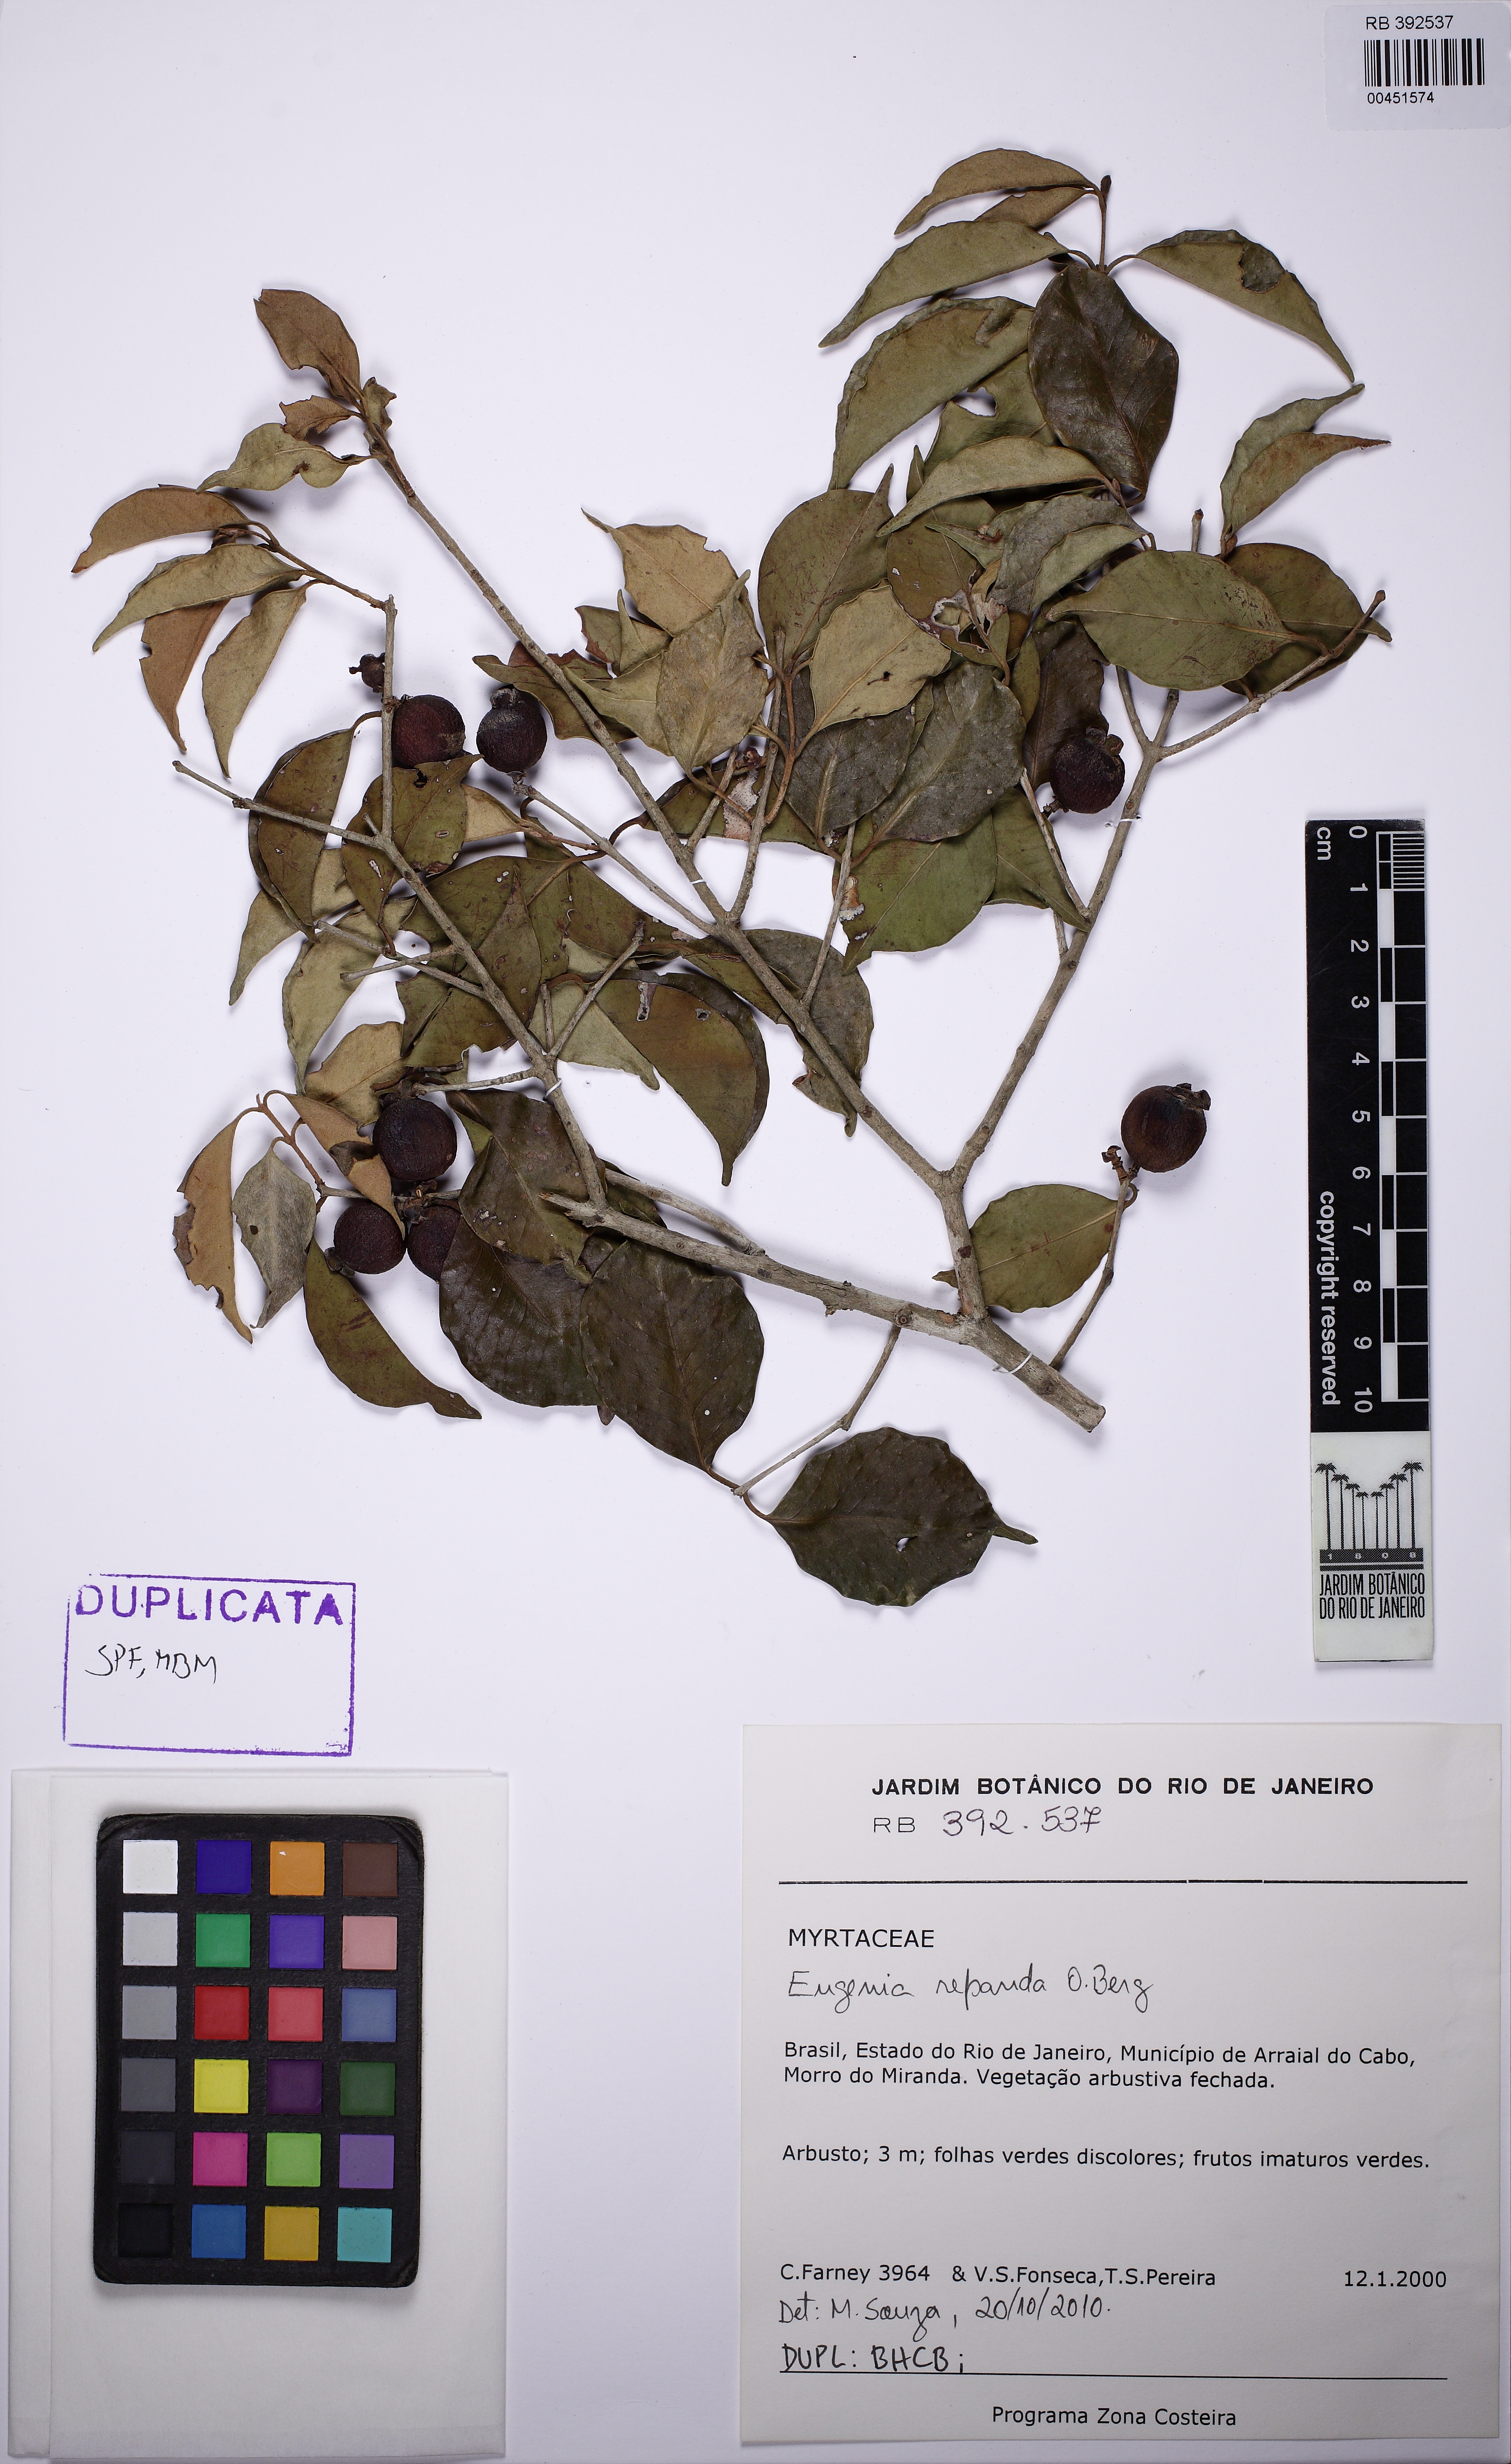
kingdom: Plantae
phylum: Tracheophyta
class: Magnoliopsida
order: Myrtales
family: Myrtaceae
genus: Eugenia
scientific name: Eugenia repanda
